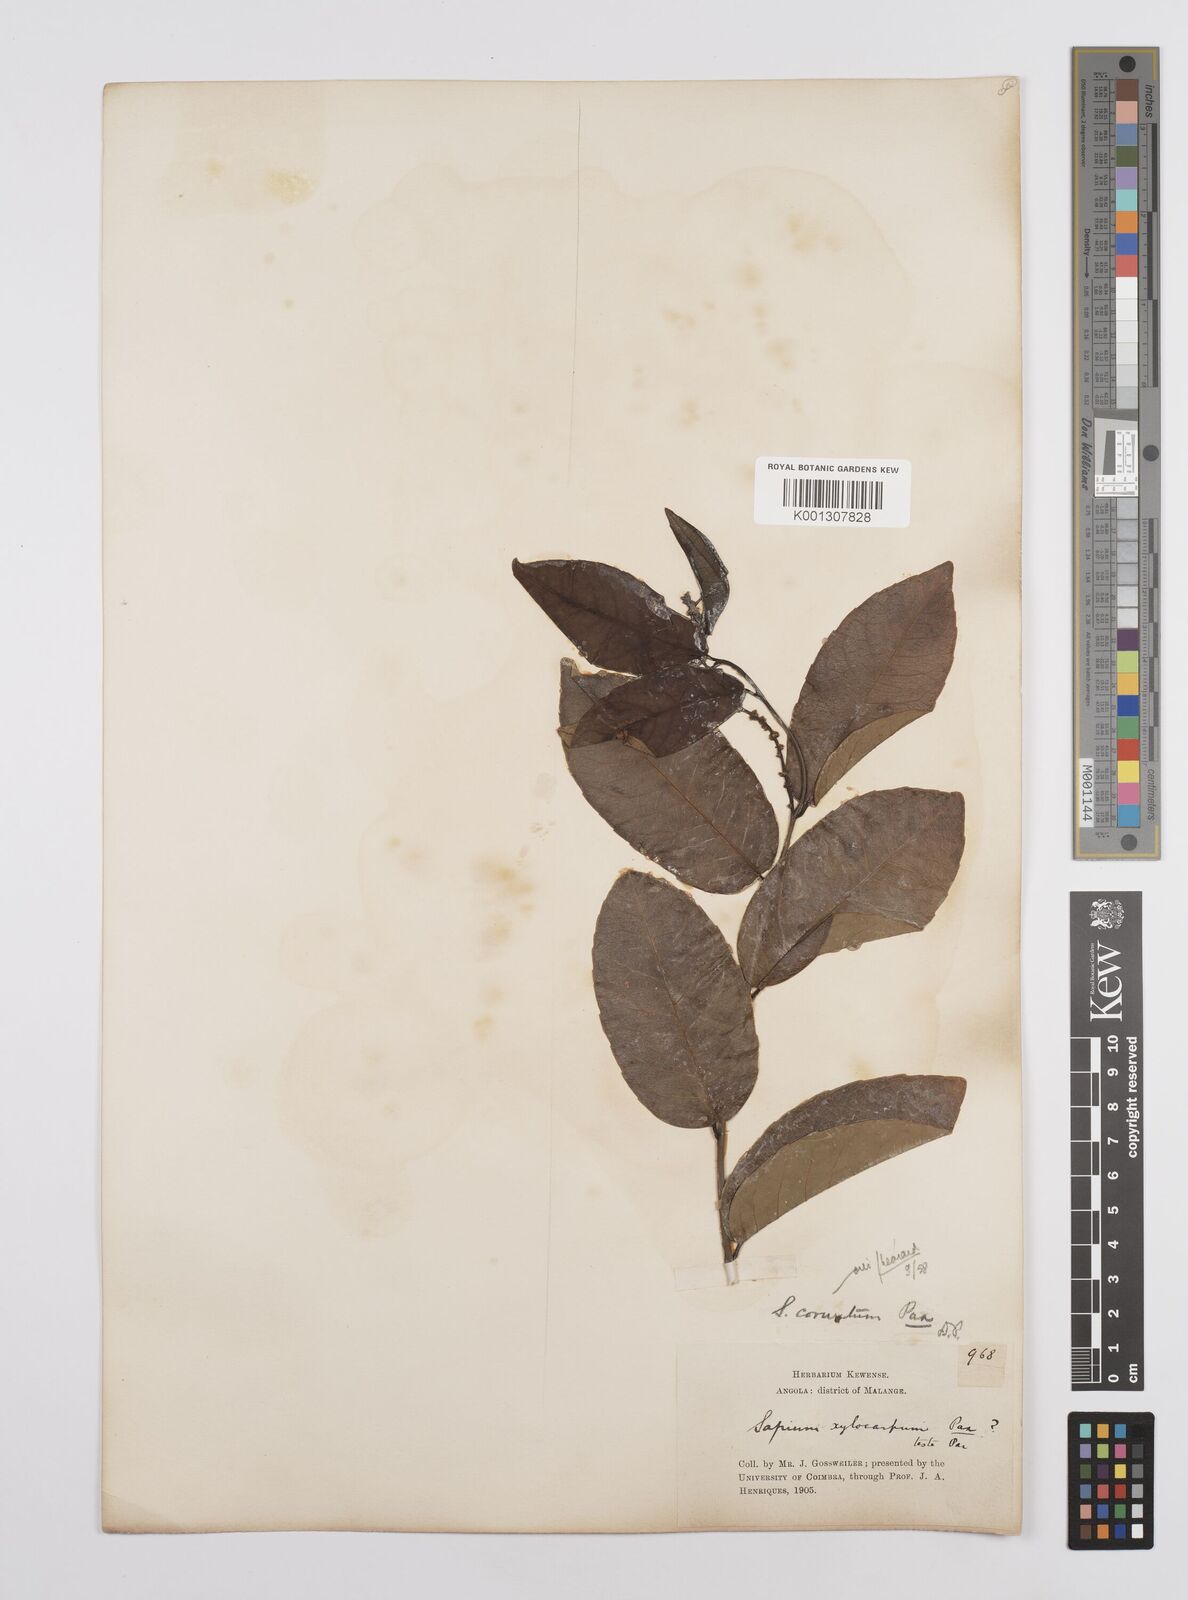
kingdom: Plantae
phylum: Tracheophyta
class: Magnoliopsida
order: Malpighiales
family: Euphorbiaceae
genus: Sclerocroton
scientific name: Sclerocroton cornutus
